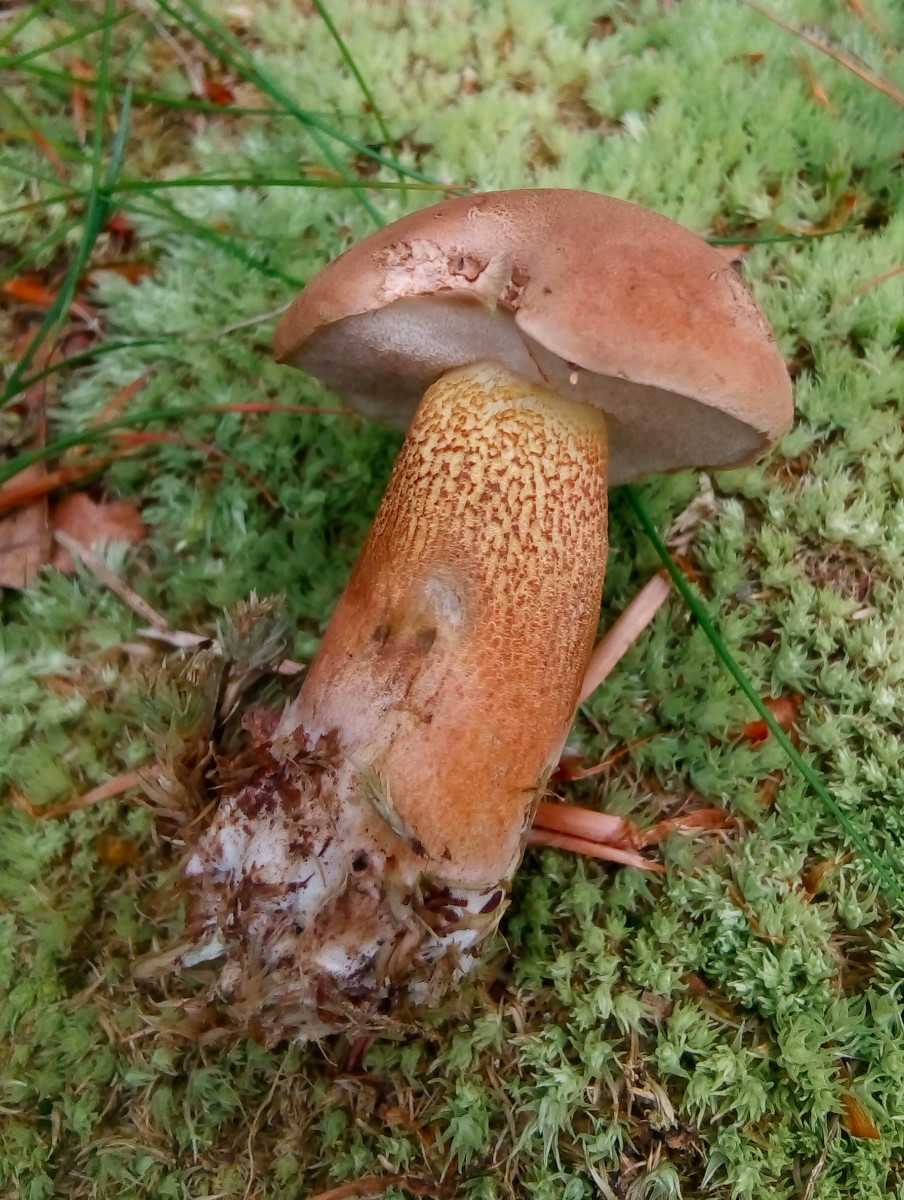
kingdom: Fungi
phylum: Basidiomycota
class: Agaricomycetes
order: Boletales
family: Boletaceae
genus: Tylopilus
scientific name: Tylopilus felleus
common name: galderørhat
